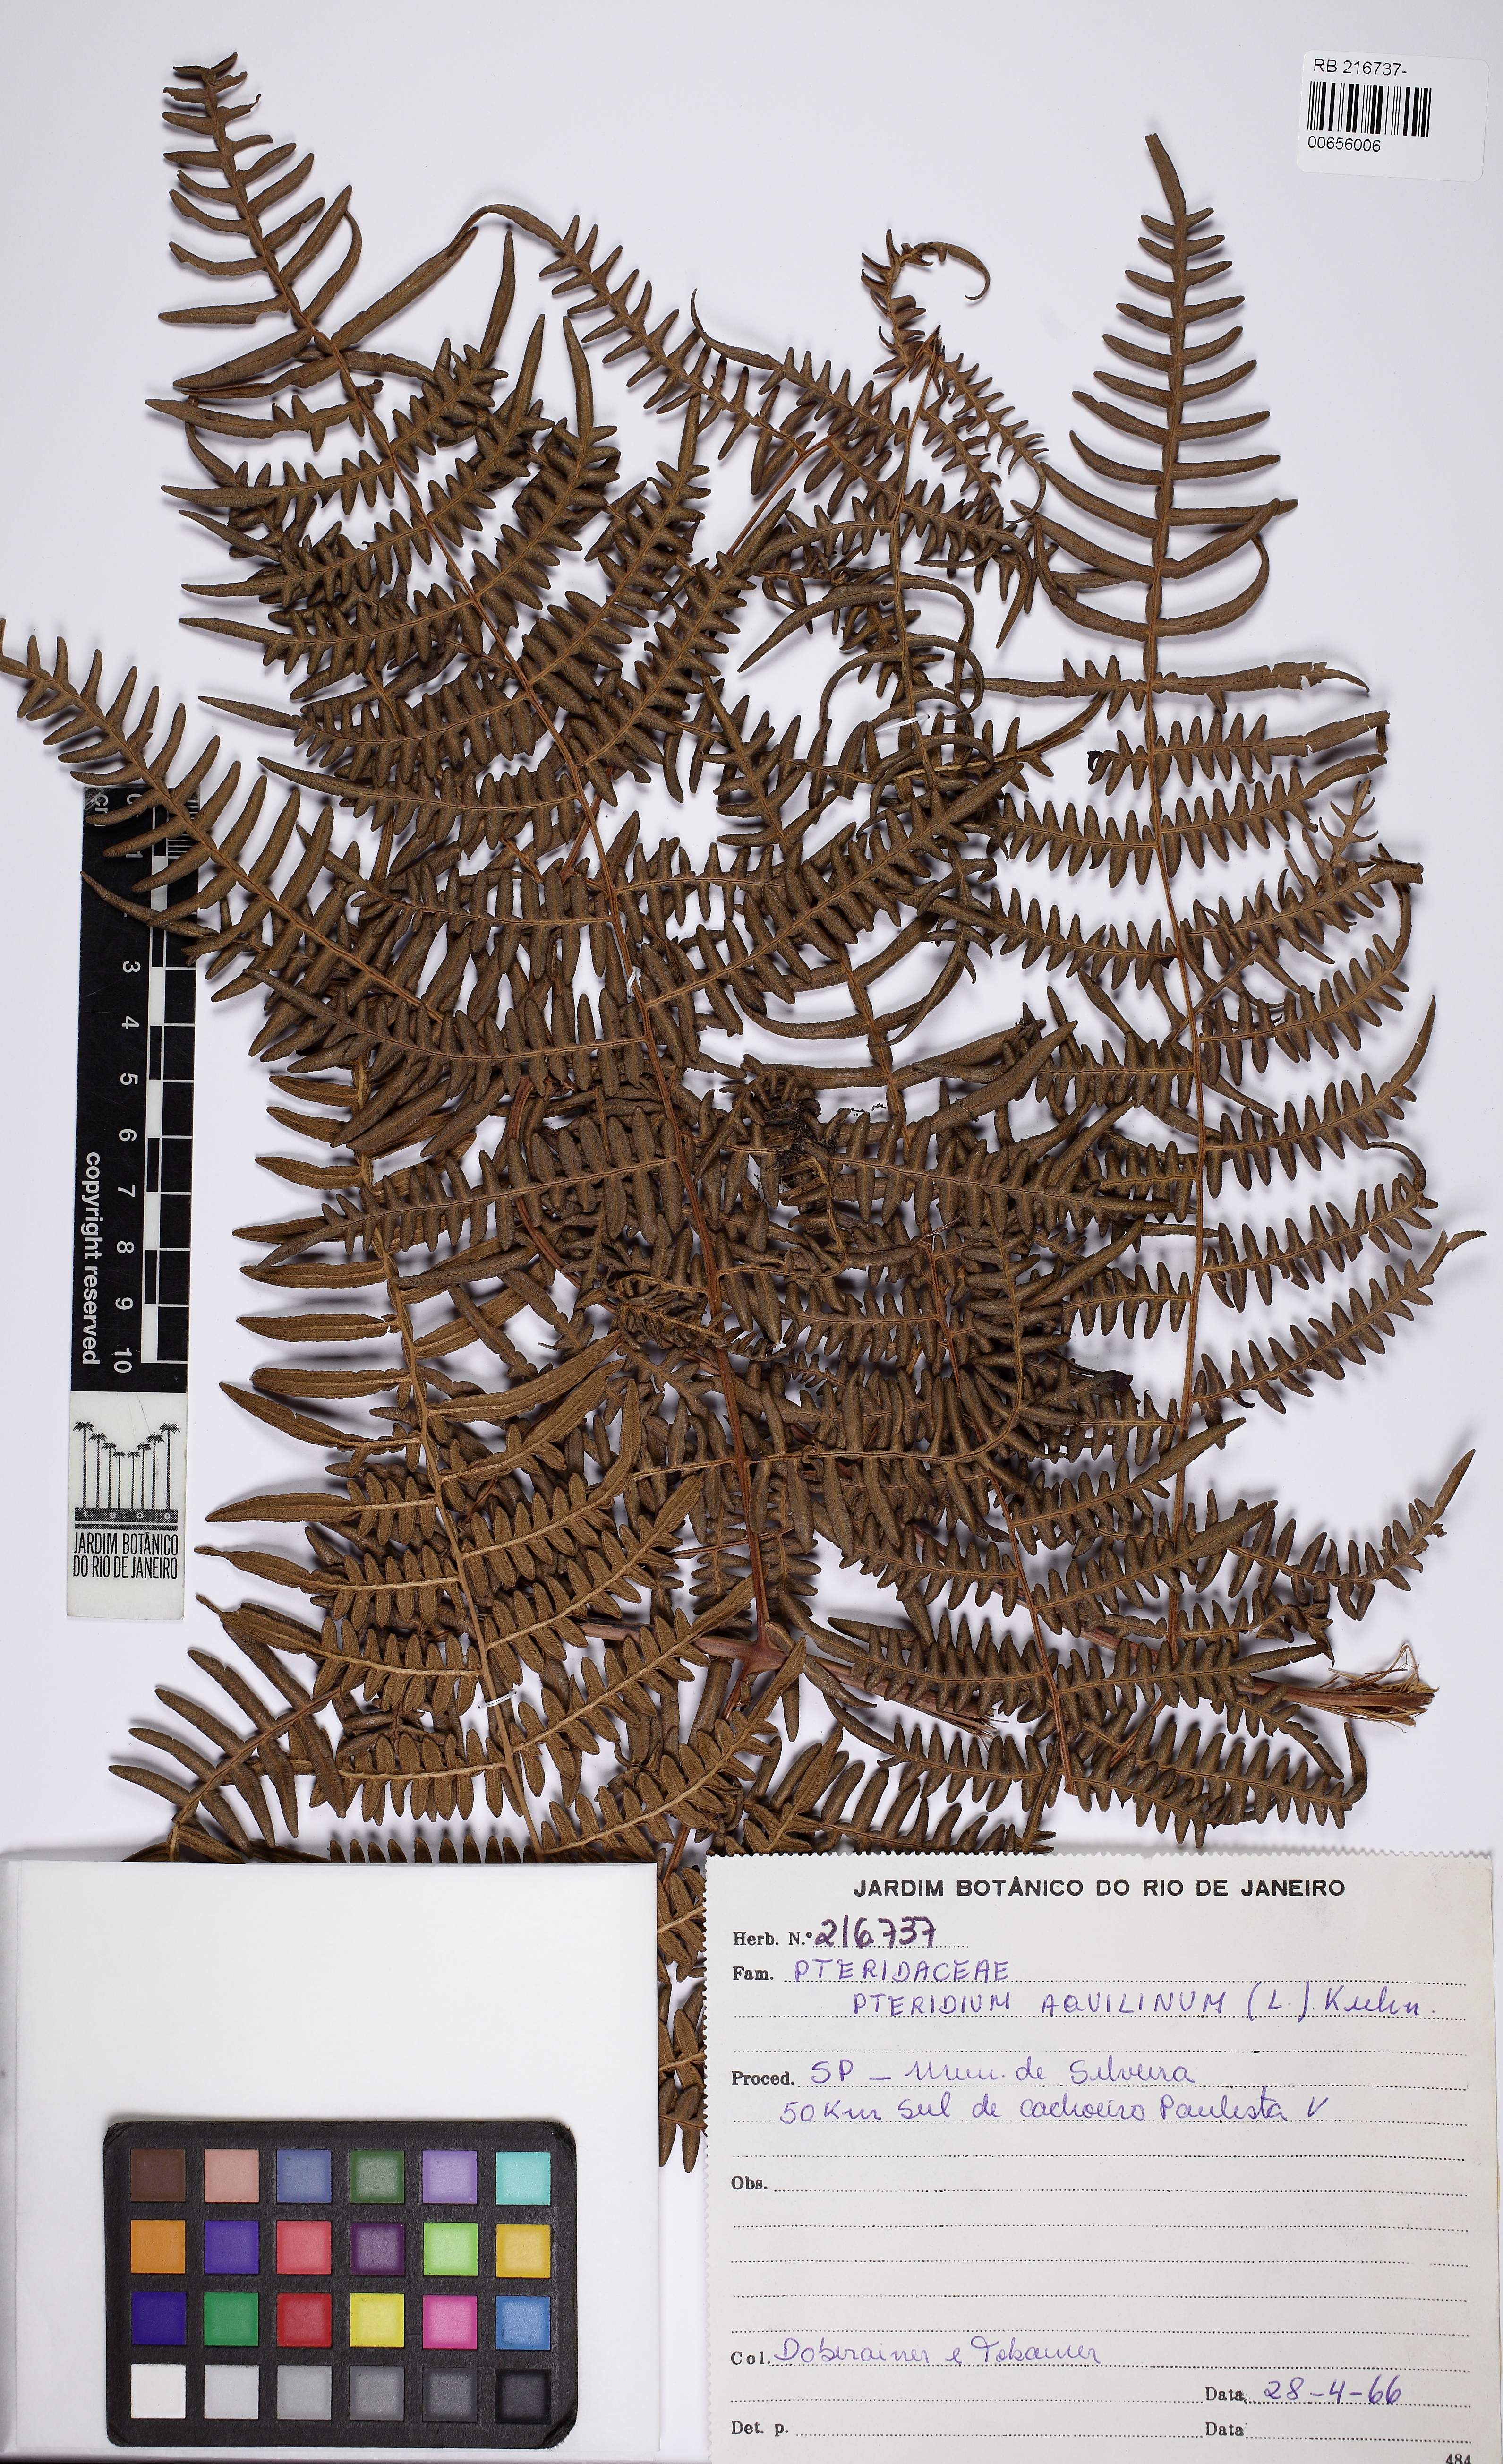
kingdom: Plantae
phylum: Tracheophyta
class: Polypodiopsida
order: Polypodiales
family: Dennstaedtiaceae
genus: Pteridium
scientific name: Pteridium aquilinum
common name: Bracken
